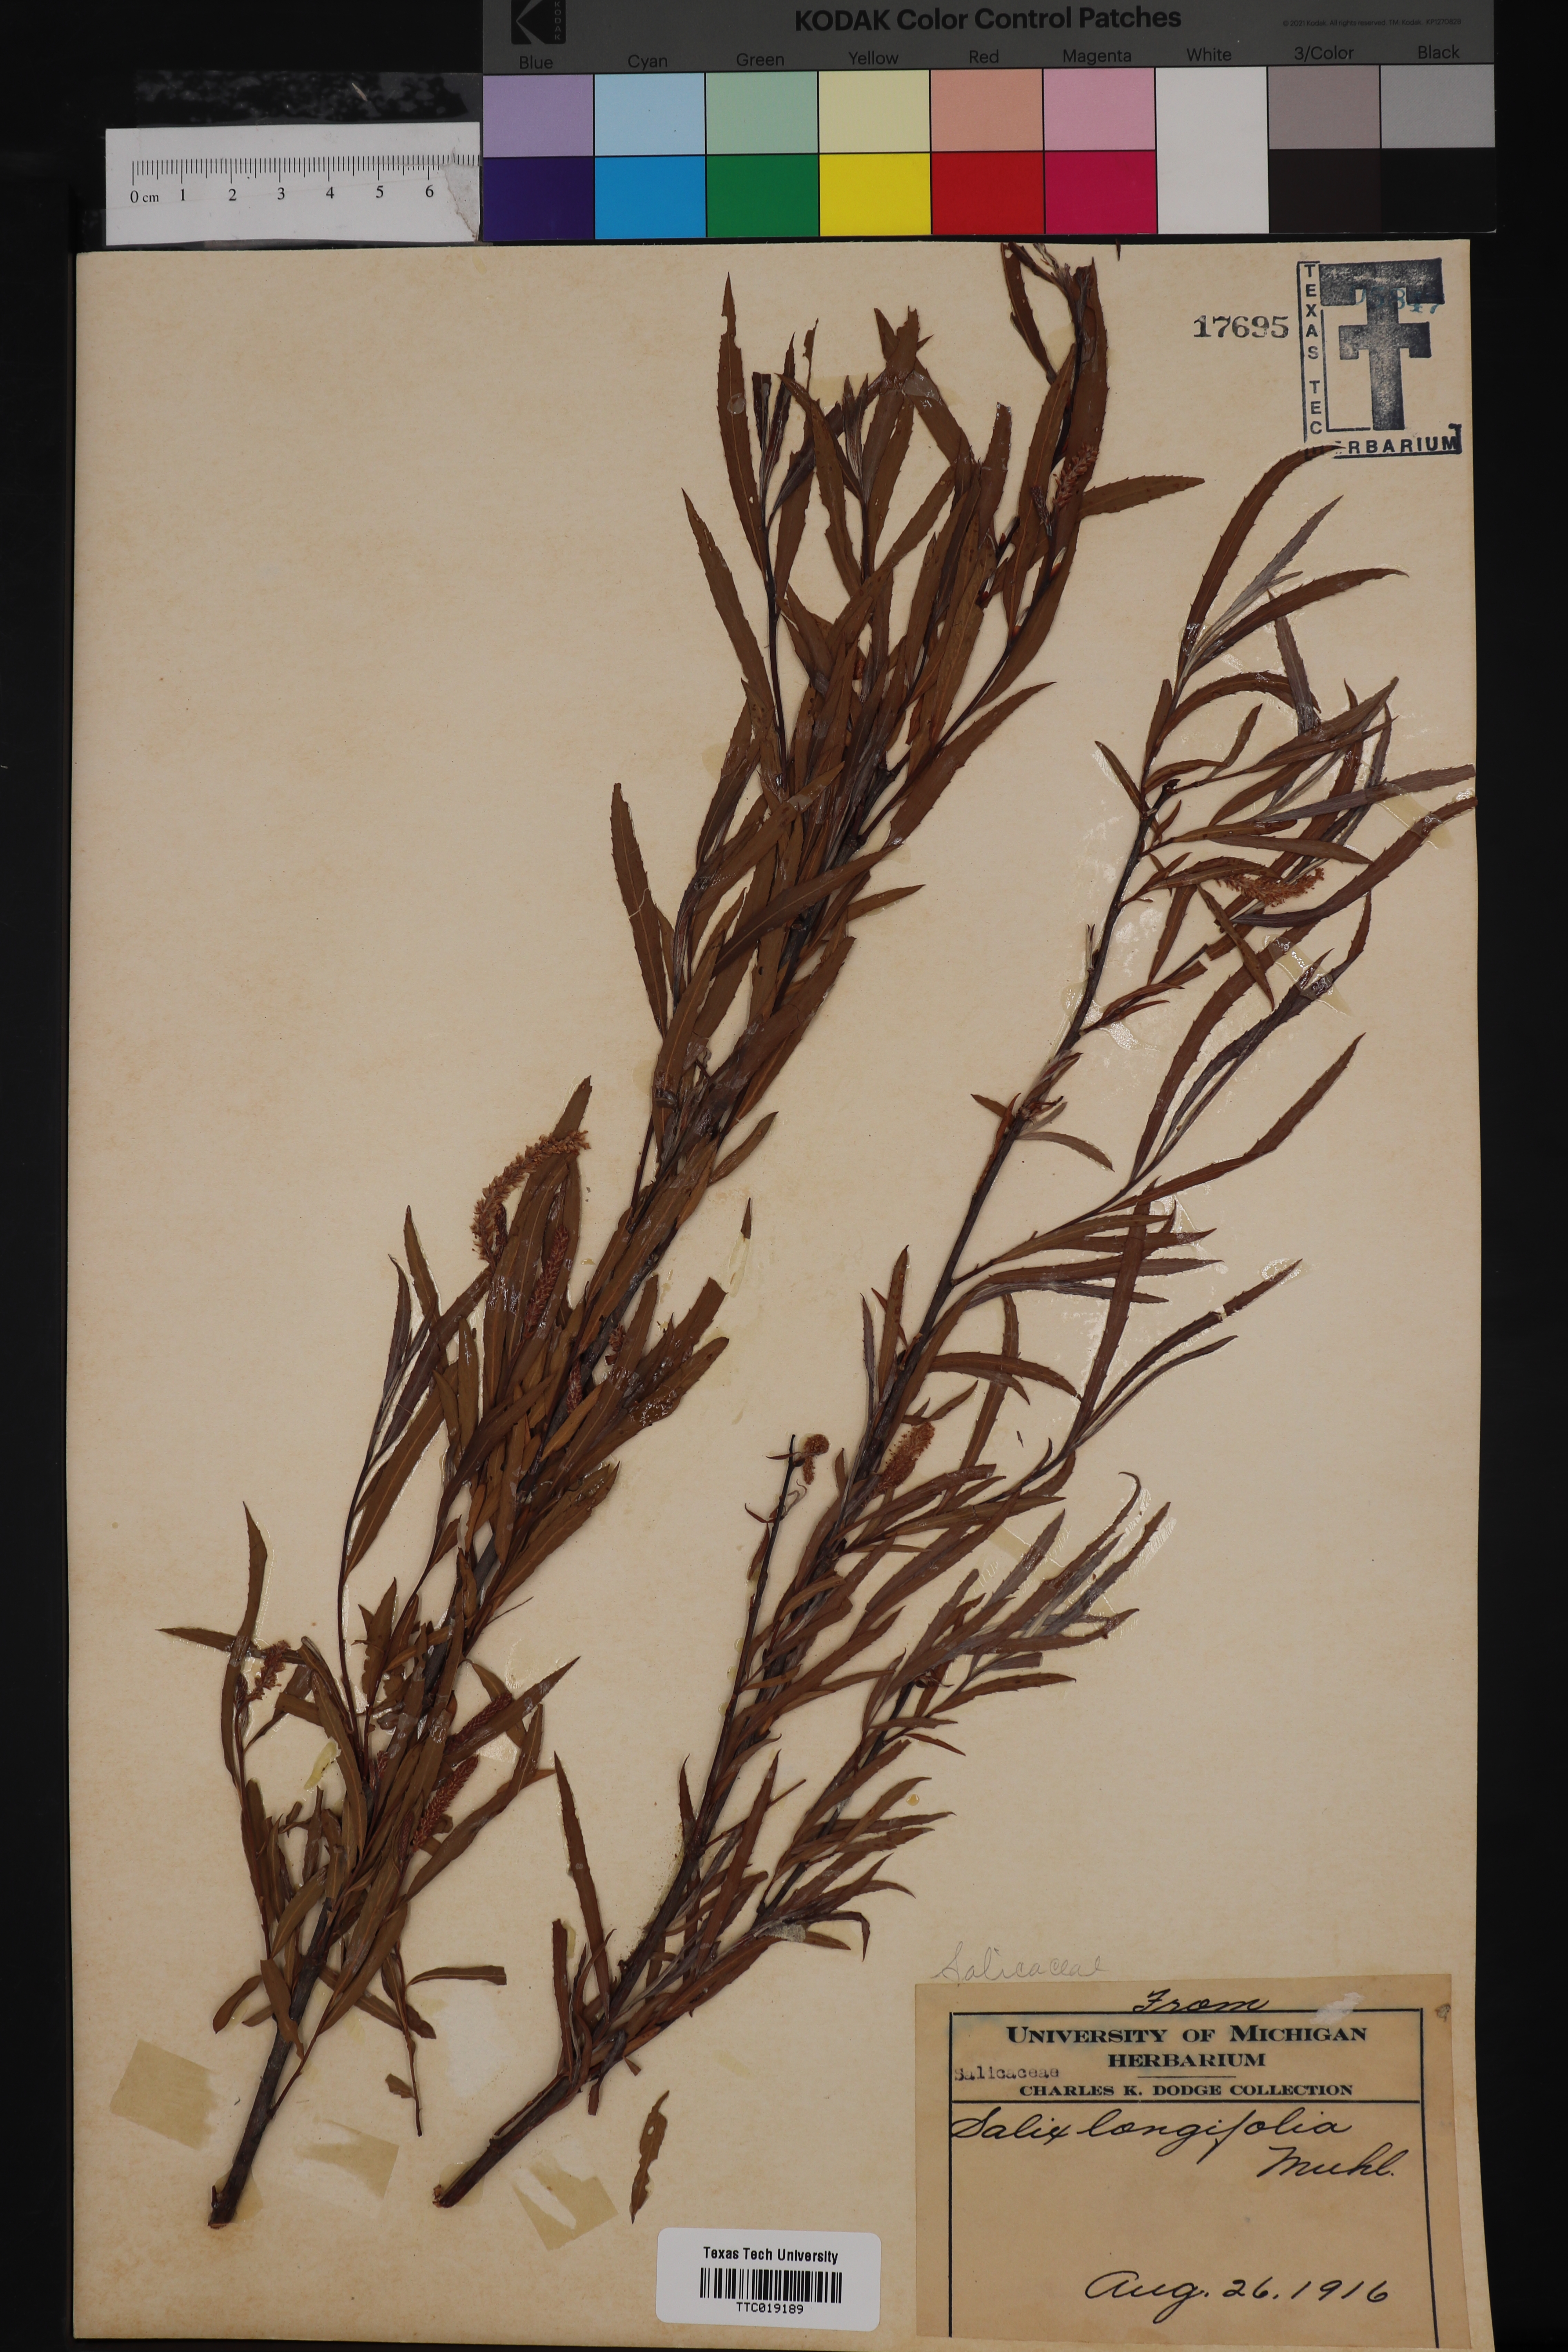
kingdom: Plantae
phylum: Tracheophyta
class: Magnoliopsida
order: Malpighiales
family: Salicaceae
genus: Salix
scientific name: Salix interior
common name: Sandbar willow
